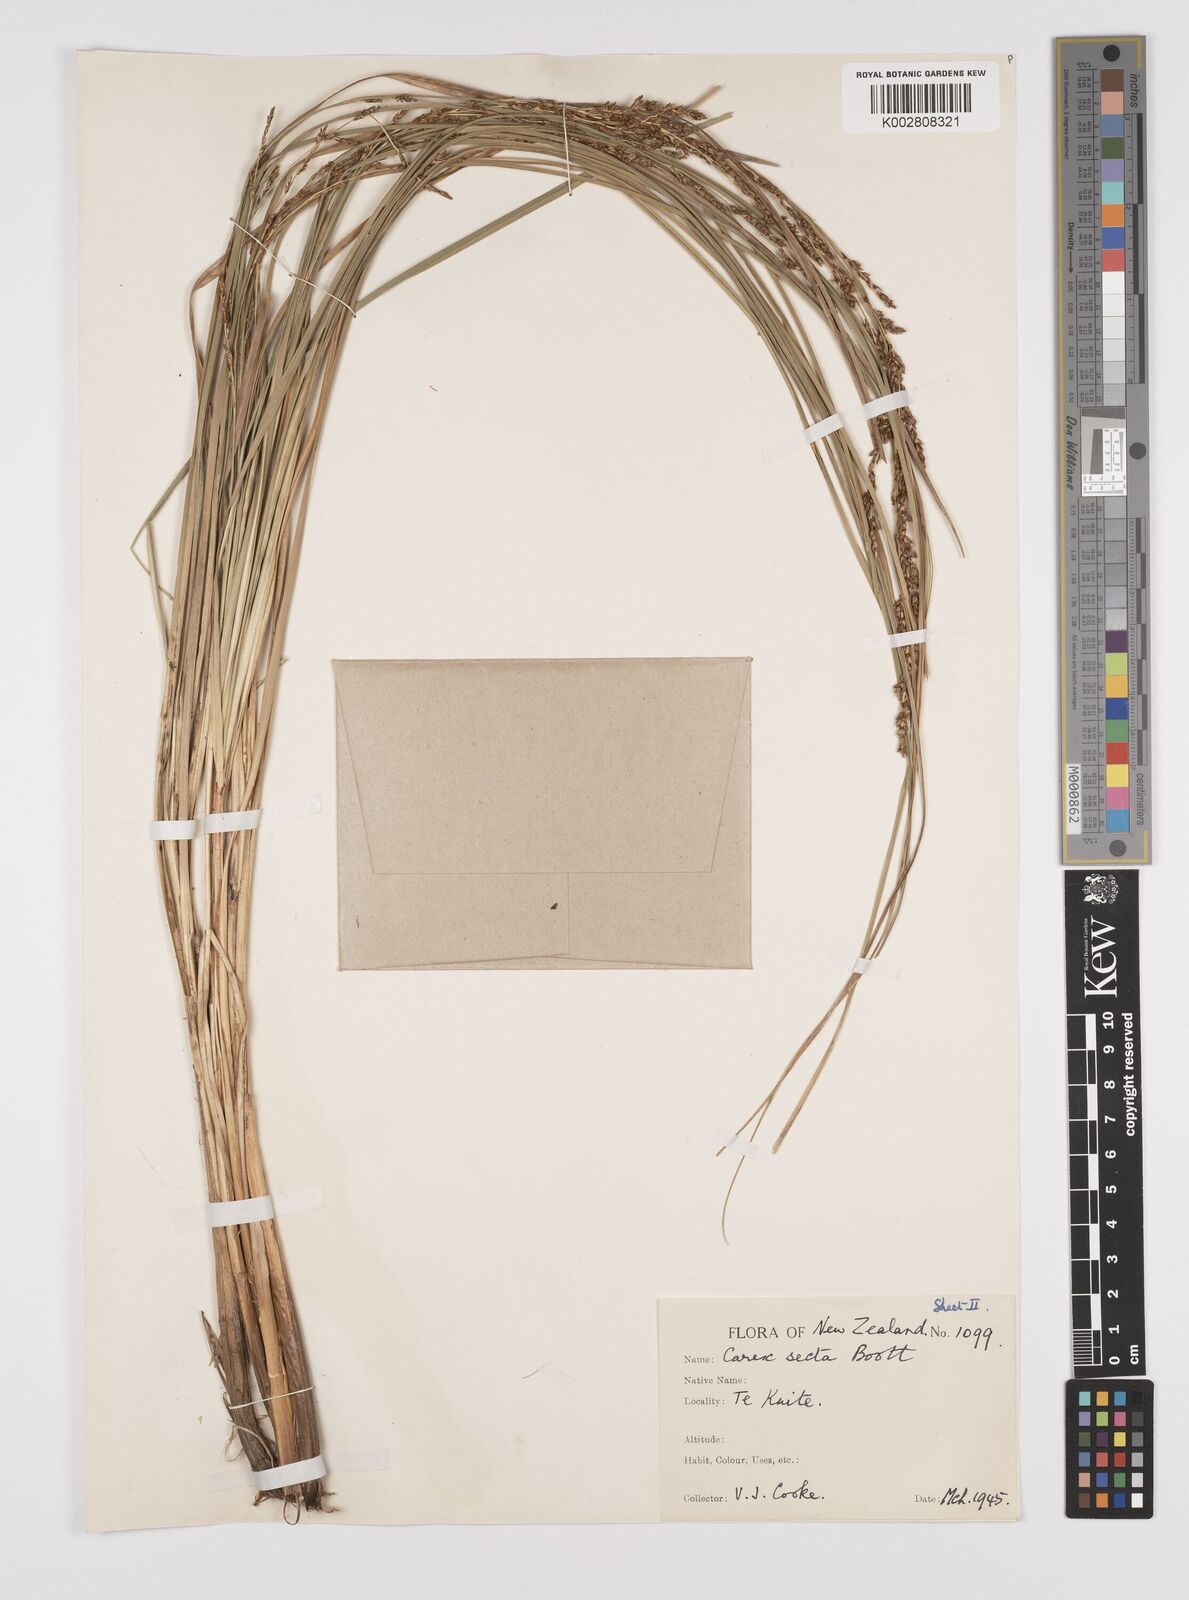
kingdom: Plantae
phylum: Tracheophyta
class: Liliopsida
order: Poales
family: Cyperaceae
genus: Carex
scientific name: Carex appressa
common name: Tussock sedge
